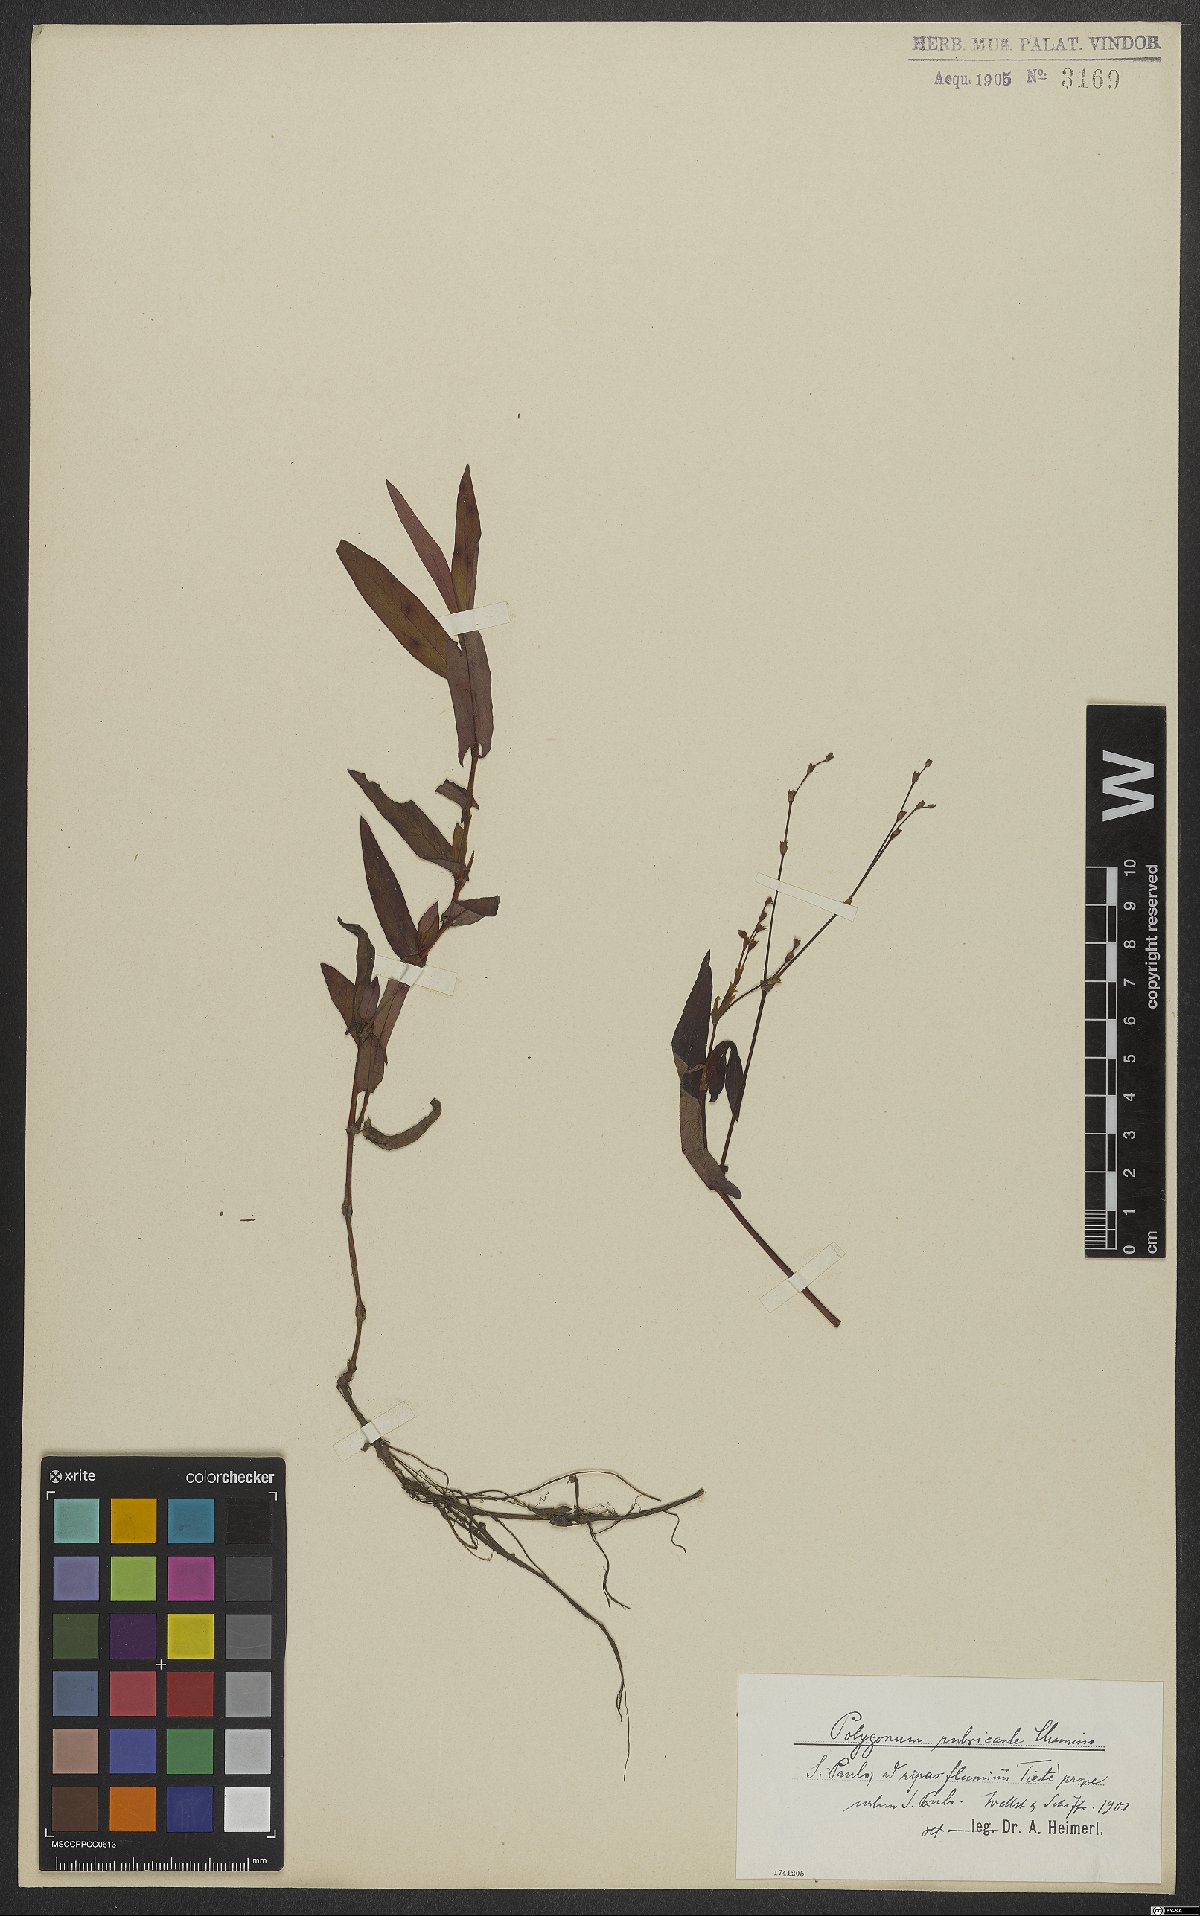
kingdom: Plantae
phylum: Tracheophyta
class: Magnoliopsida
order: Caryophyllales
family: Polygonaceae
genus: Persicaria
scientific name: Persicaria rubricaulis
